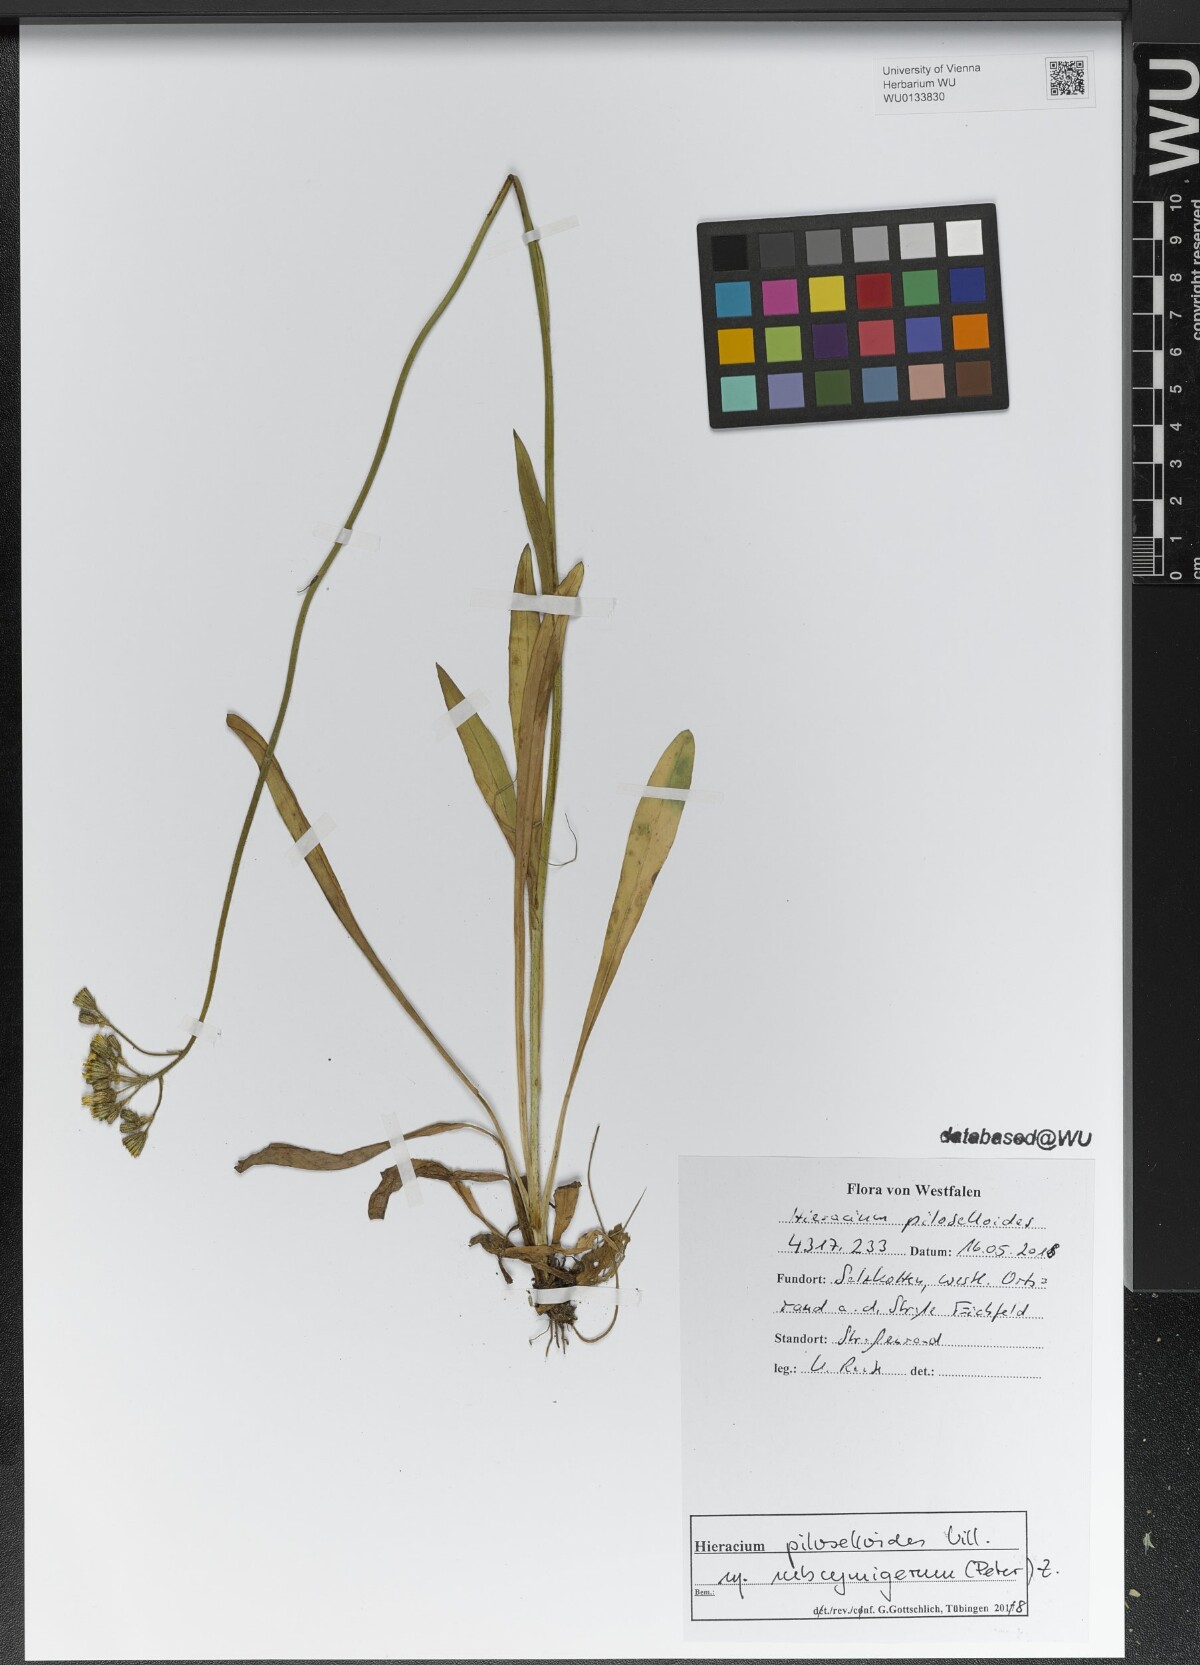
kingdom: Plantae
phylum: Tracheophyta
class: Magnoliopsida
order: Asterales
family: Asteraceae
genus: Pilosella
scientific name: Pilosella piloselloides
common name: Glaucous king-devil
